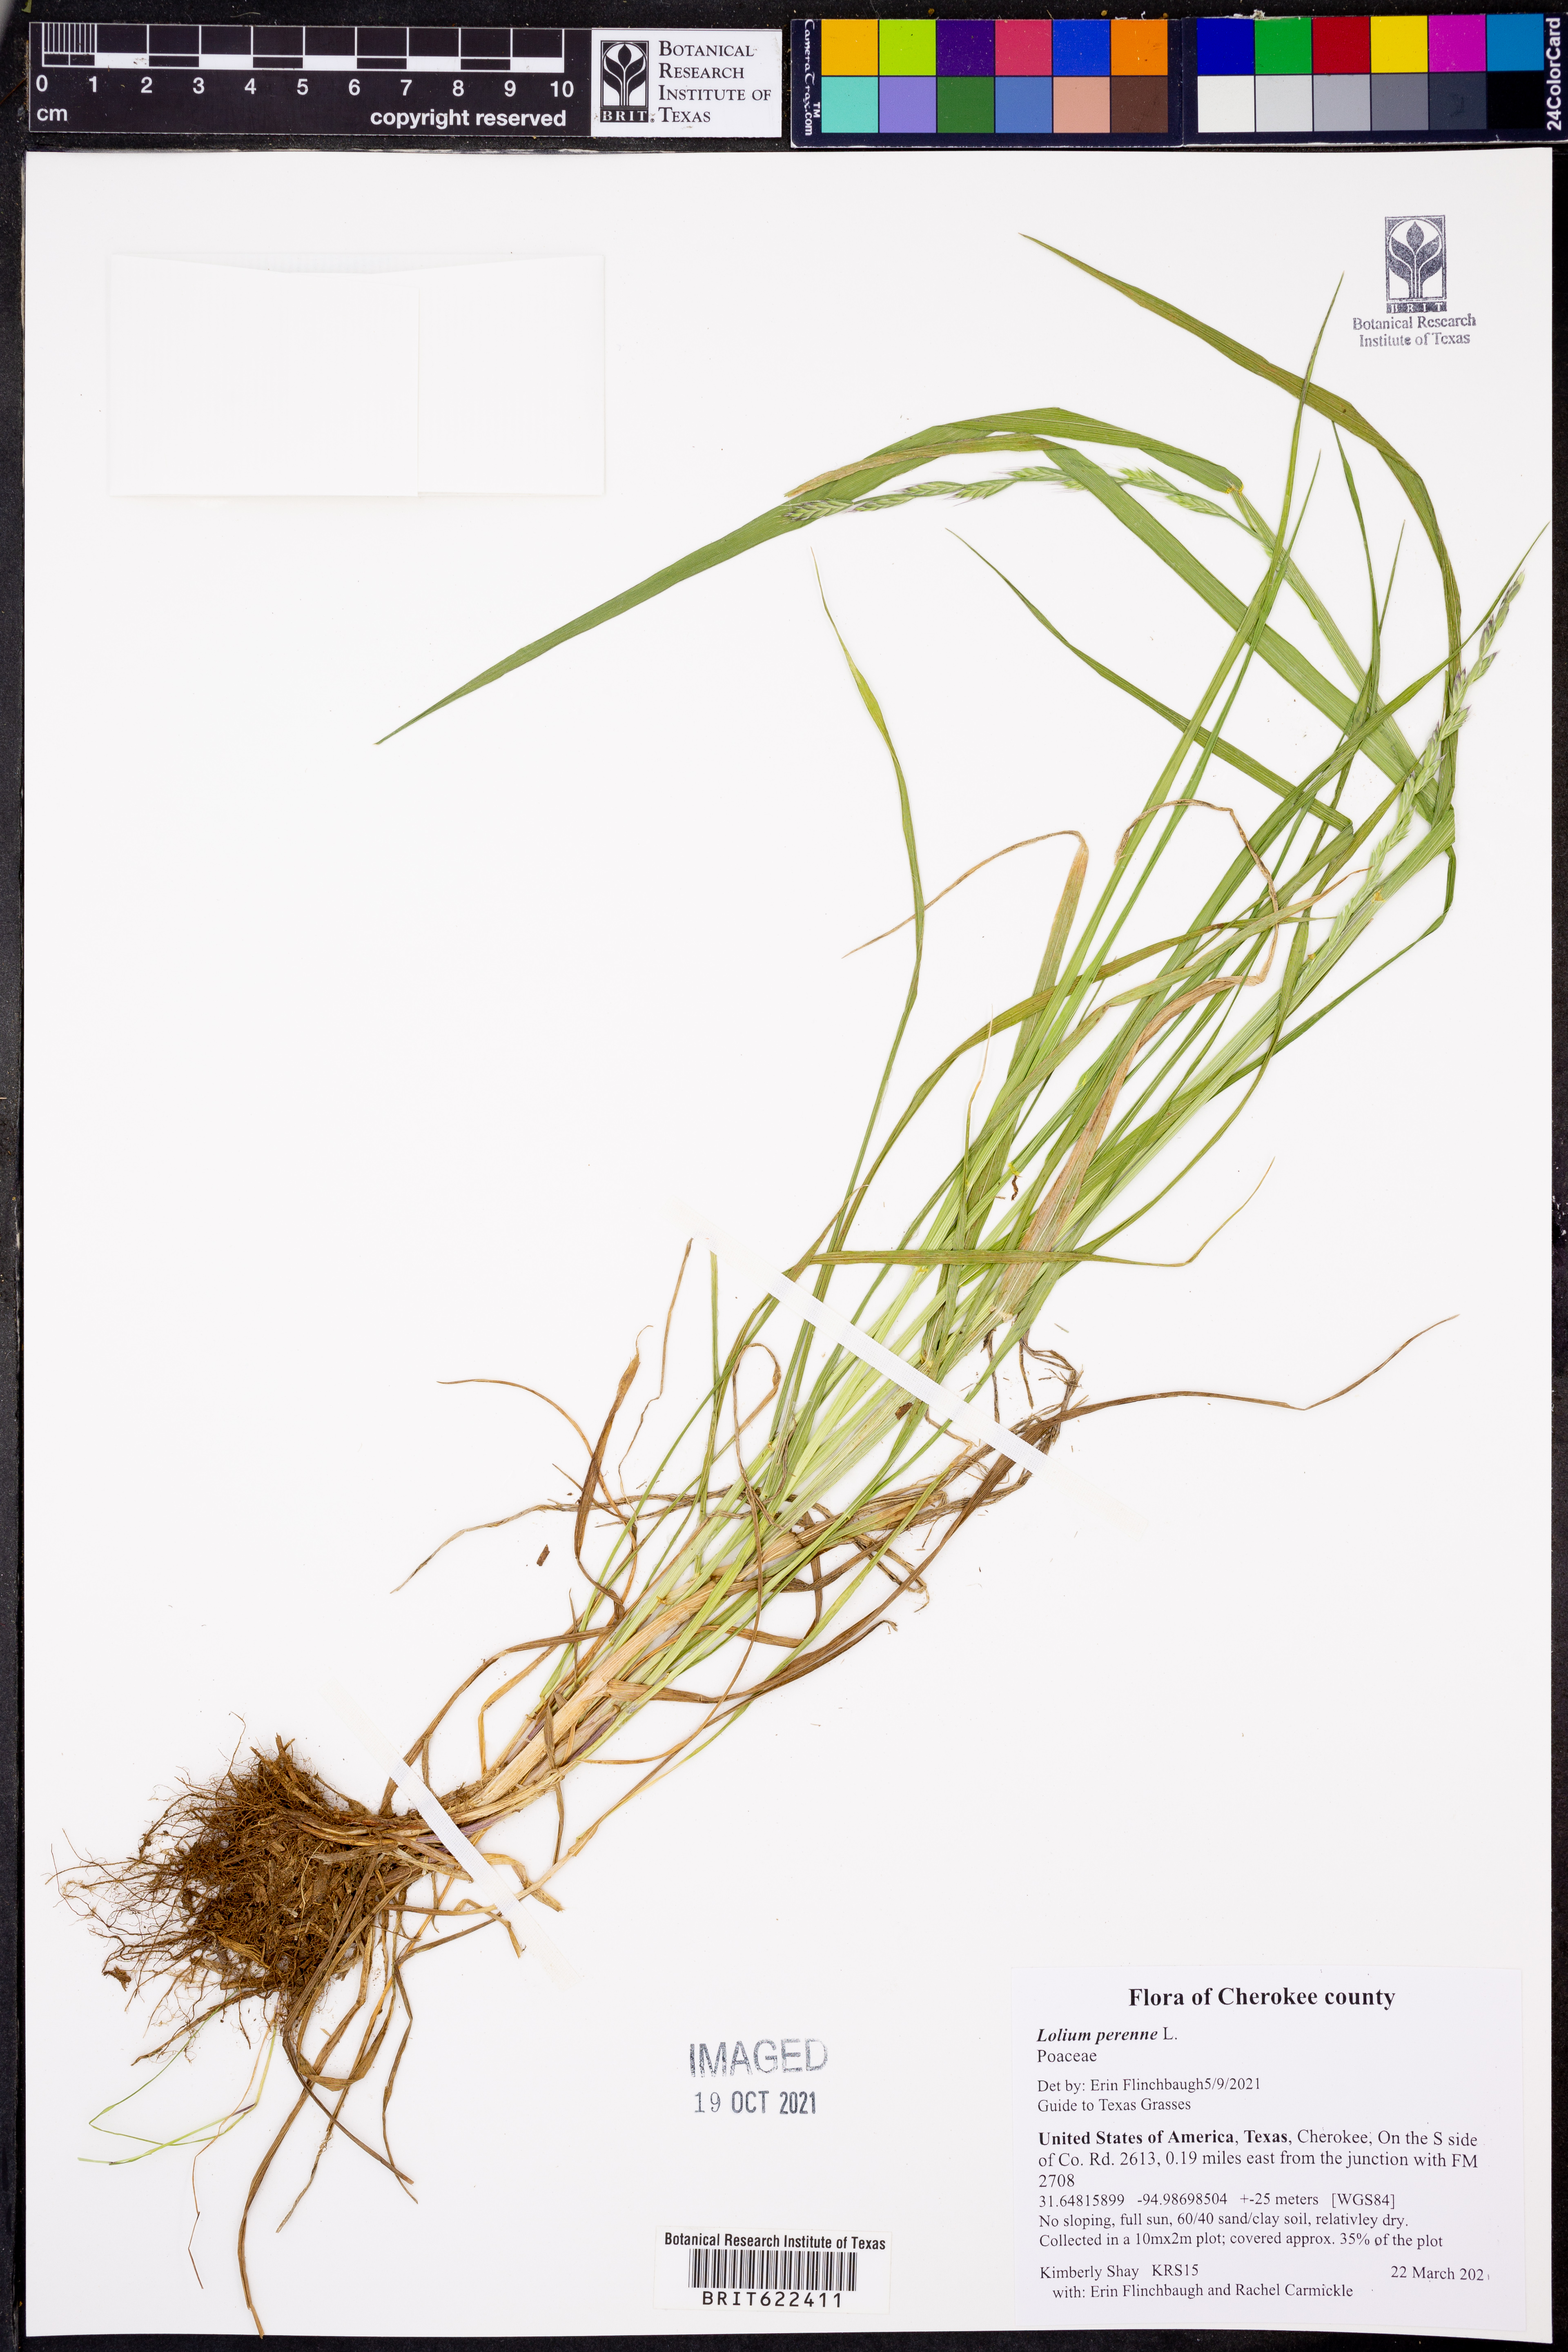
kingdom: Plantae
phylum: Tracheophyta
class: Liliopsida
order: Poales
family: Poaceae
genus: Lolium
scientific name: Lolium perenne
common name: Perennial ryegrass
